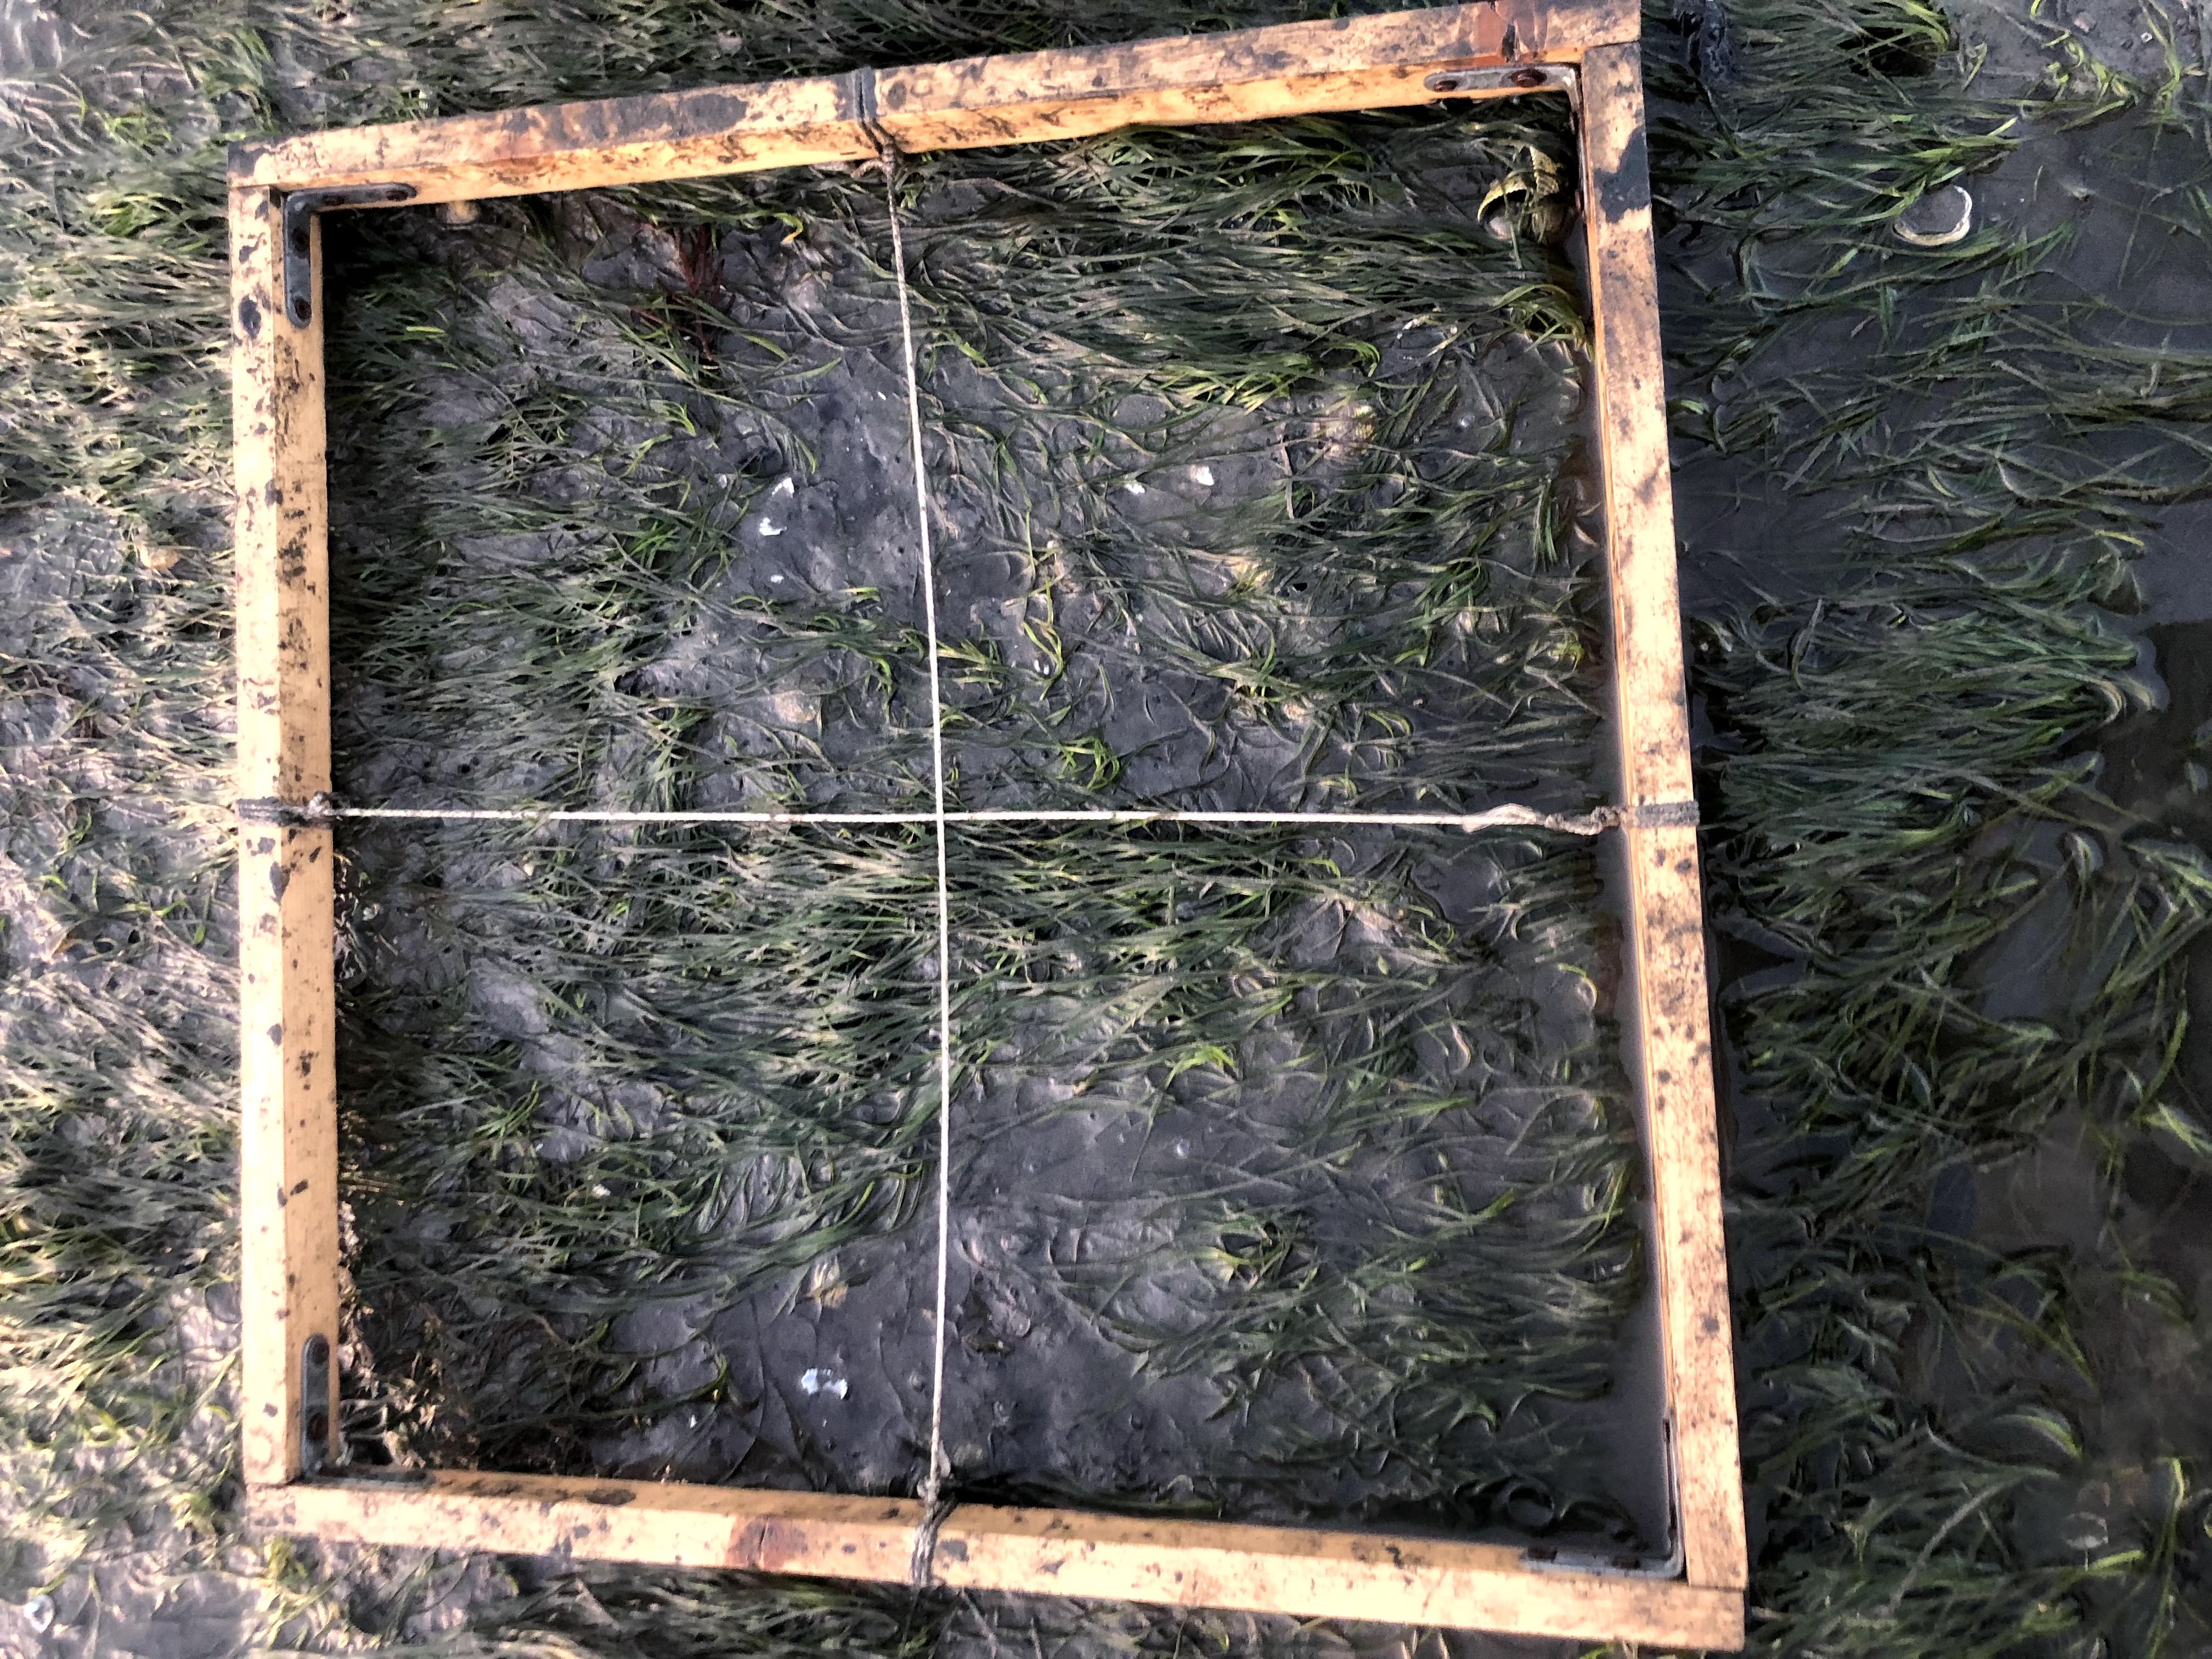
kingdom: Plantae
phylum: Tracheophyta
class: Liliopsida
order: Alismatales
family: Zosteraceae
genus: Zostera
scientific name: Zostera noltii
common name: Dwarf eelgrass
